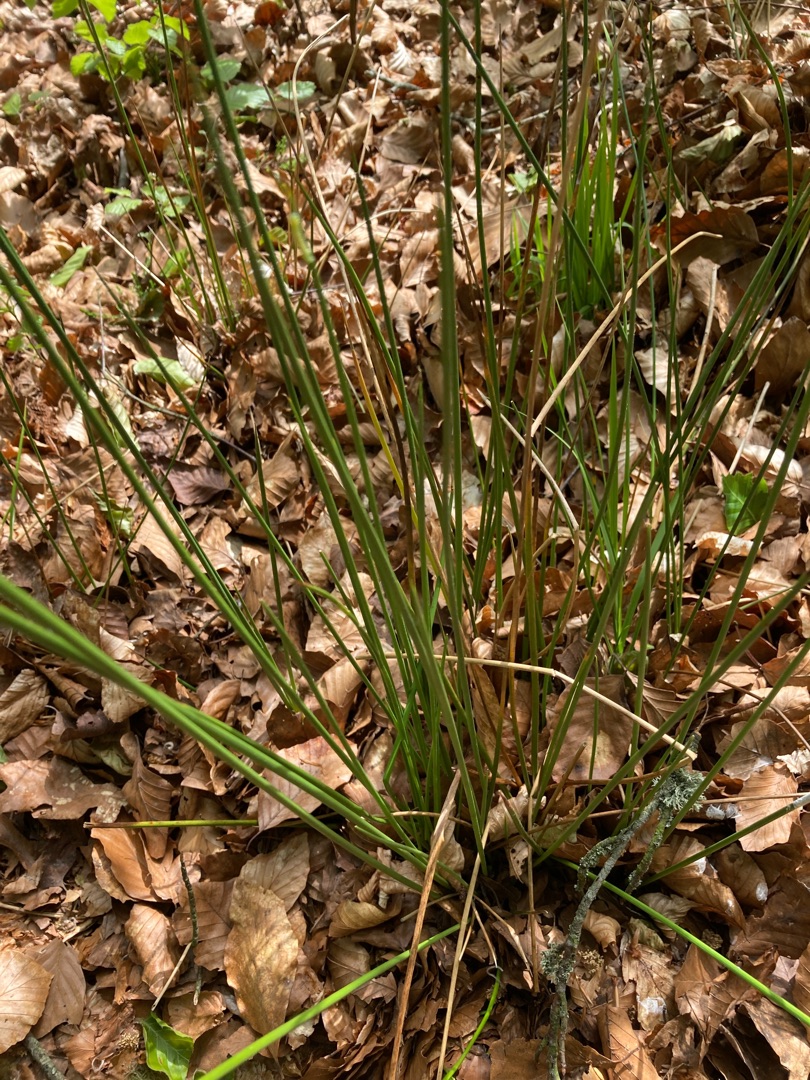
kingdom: Plantae
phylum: Tracheophyta
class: Liliopsida
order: Poales
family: Juncaceae
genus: Juncus
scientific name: Juncus effusus
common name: Lyse-siv
